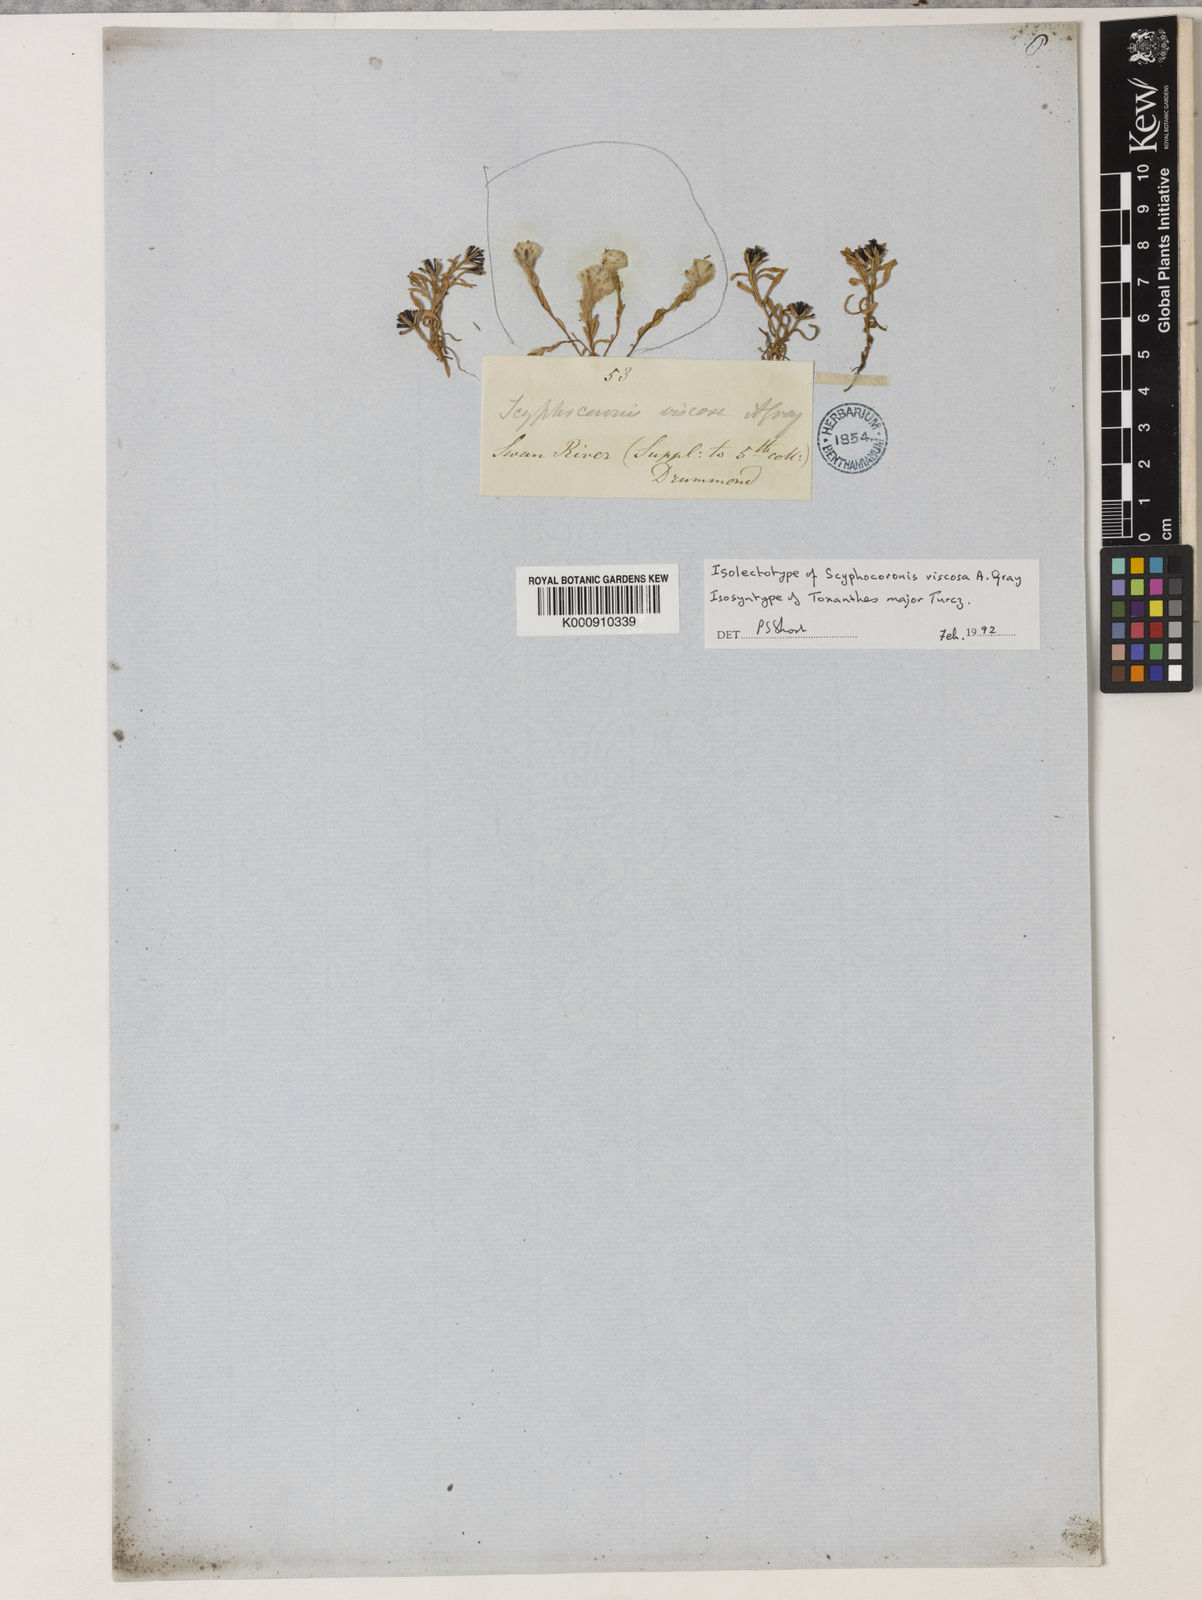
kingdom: Plantae
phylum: Tracheophyta
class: Magnoliopsida
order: Asterales
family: Asteraceae
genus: Millotia
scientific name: Millotia major
